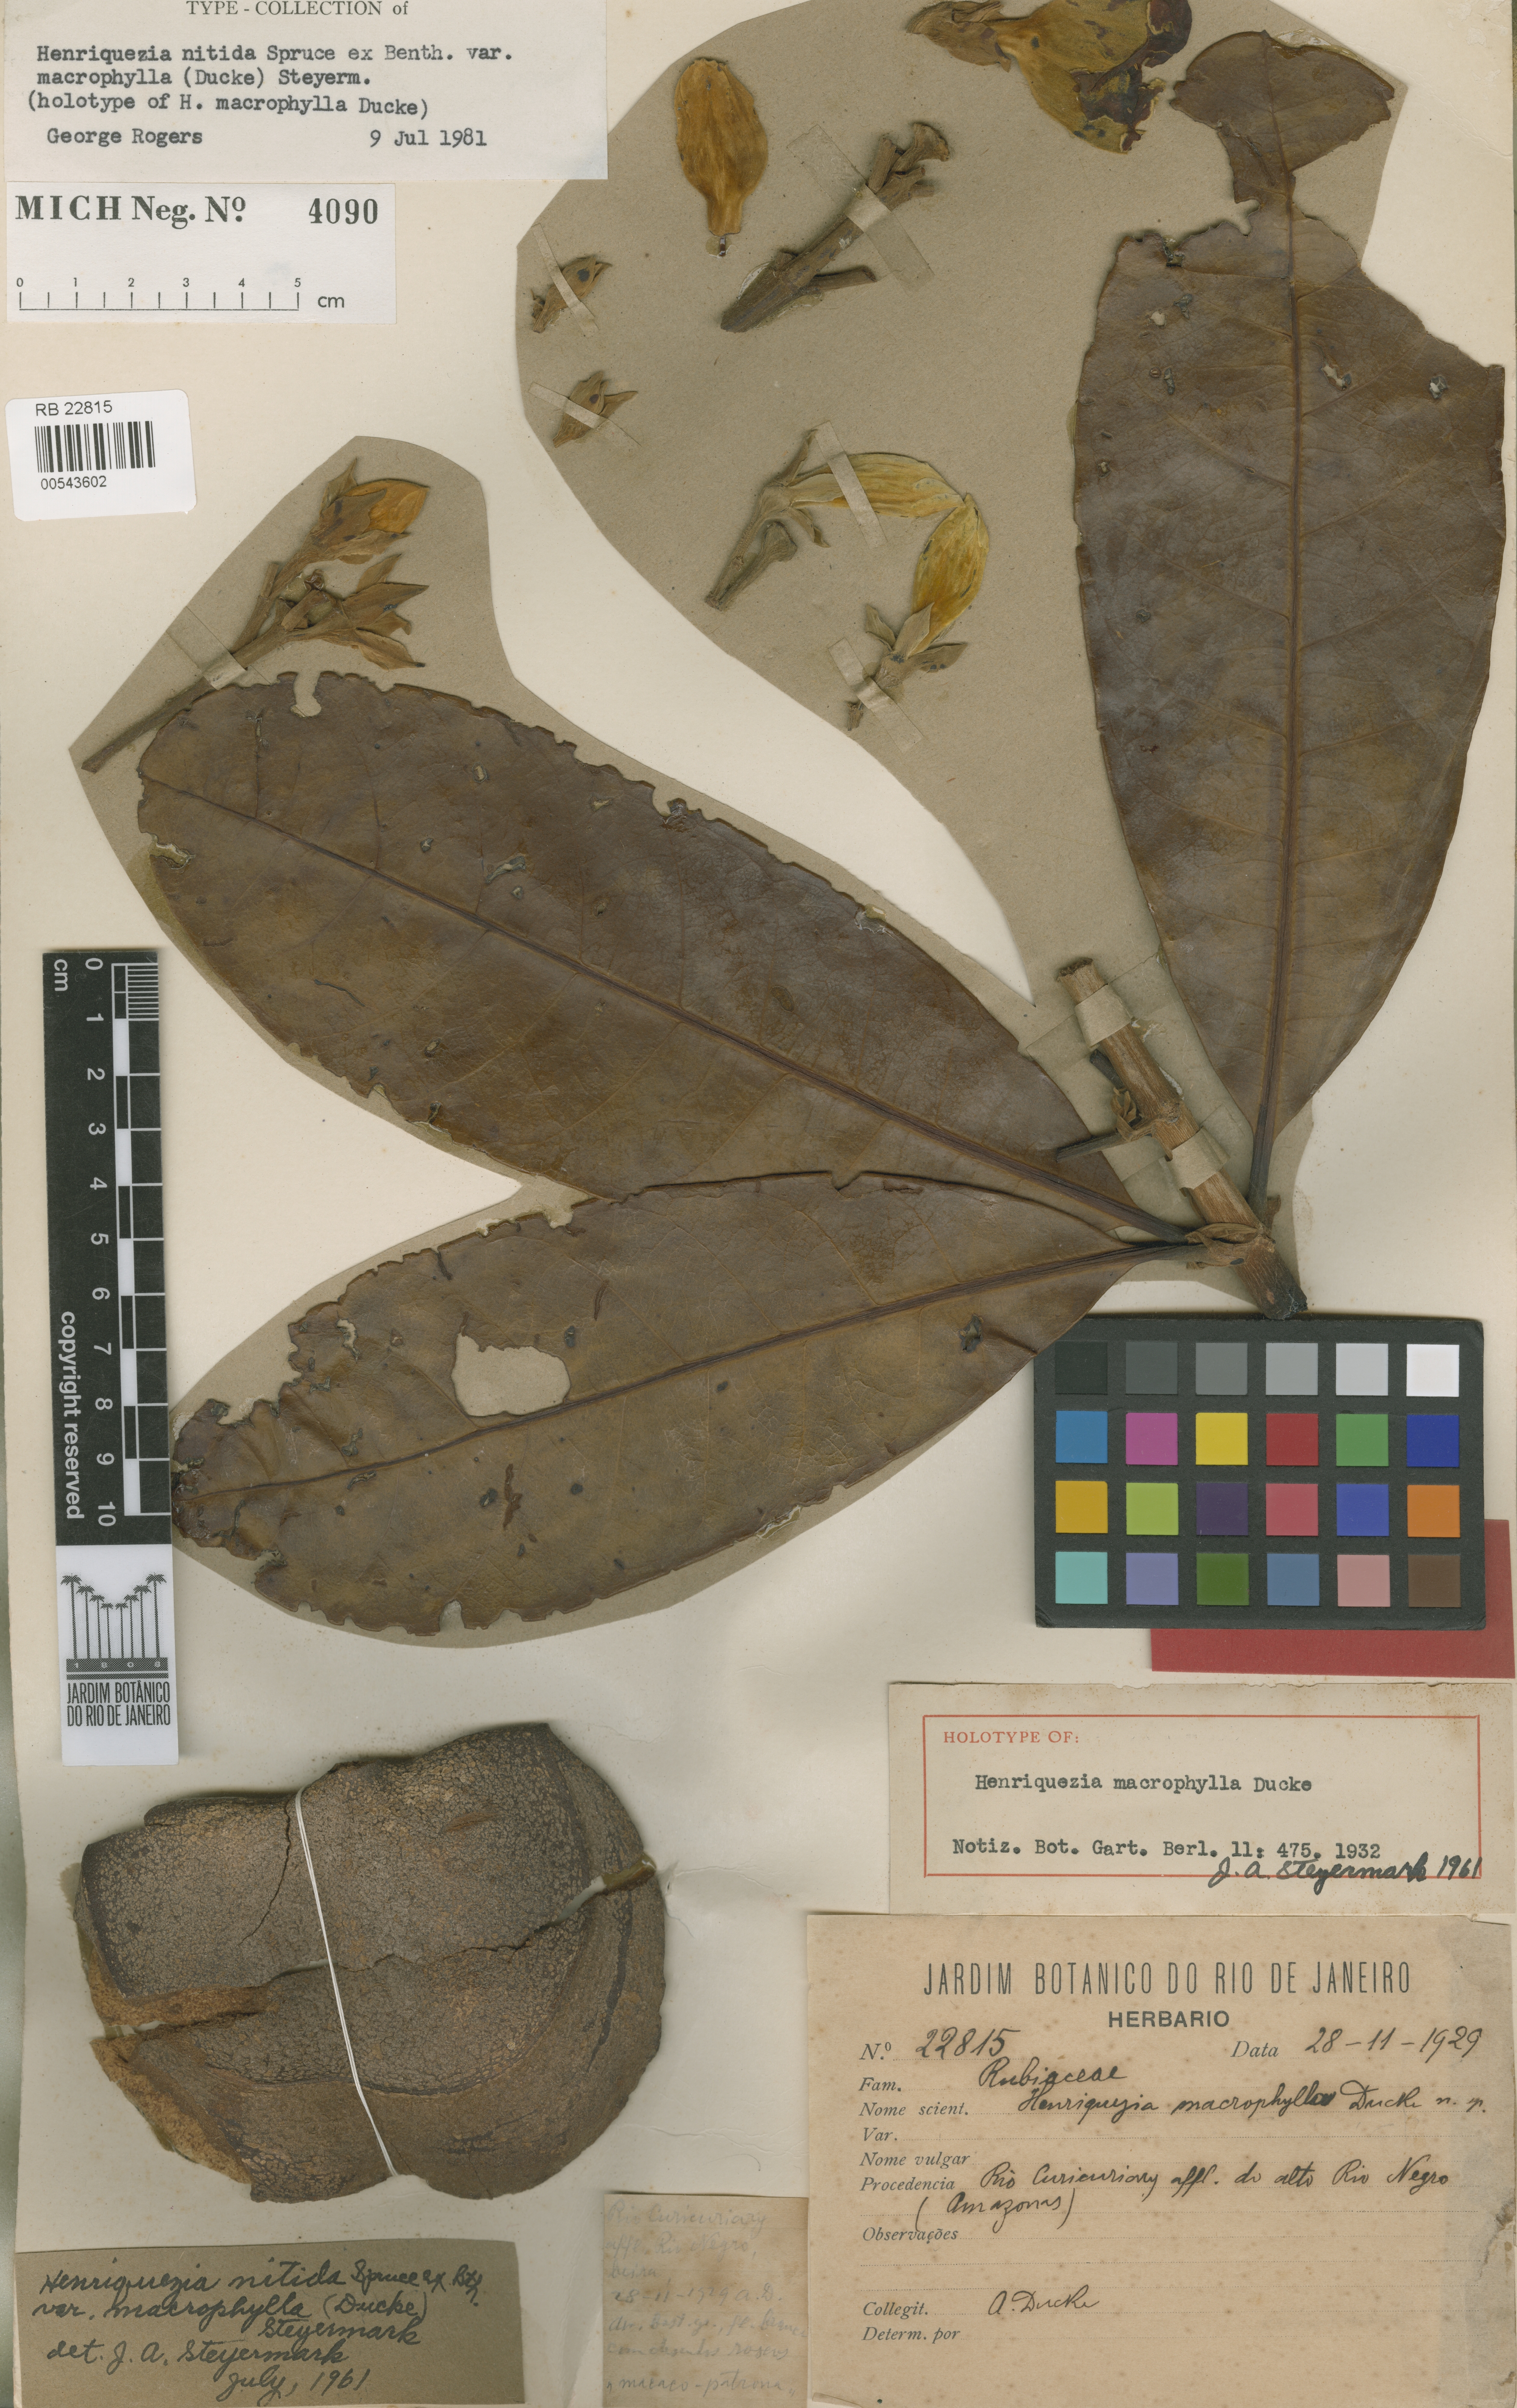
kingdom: Plantae
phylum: Tracheophyta
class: Magnoliopsida
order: Gentianales
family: Rubiaceae
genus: Henriquezia
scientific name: Henriquezia nitida
